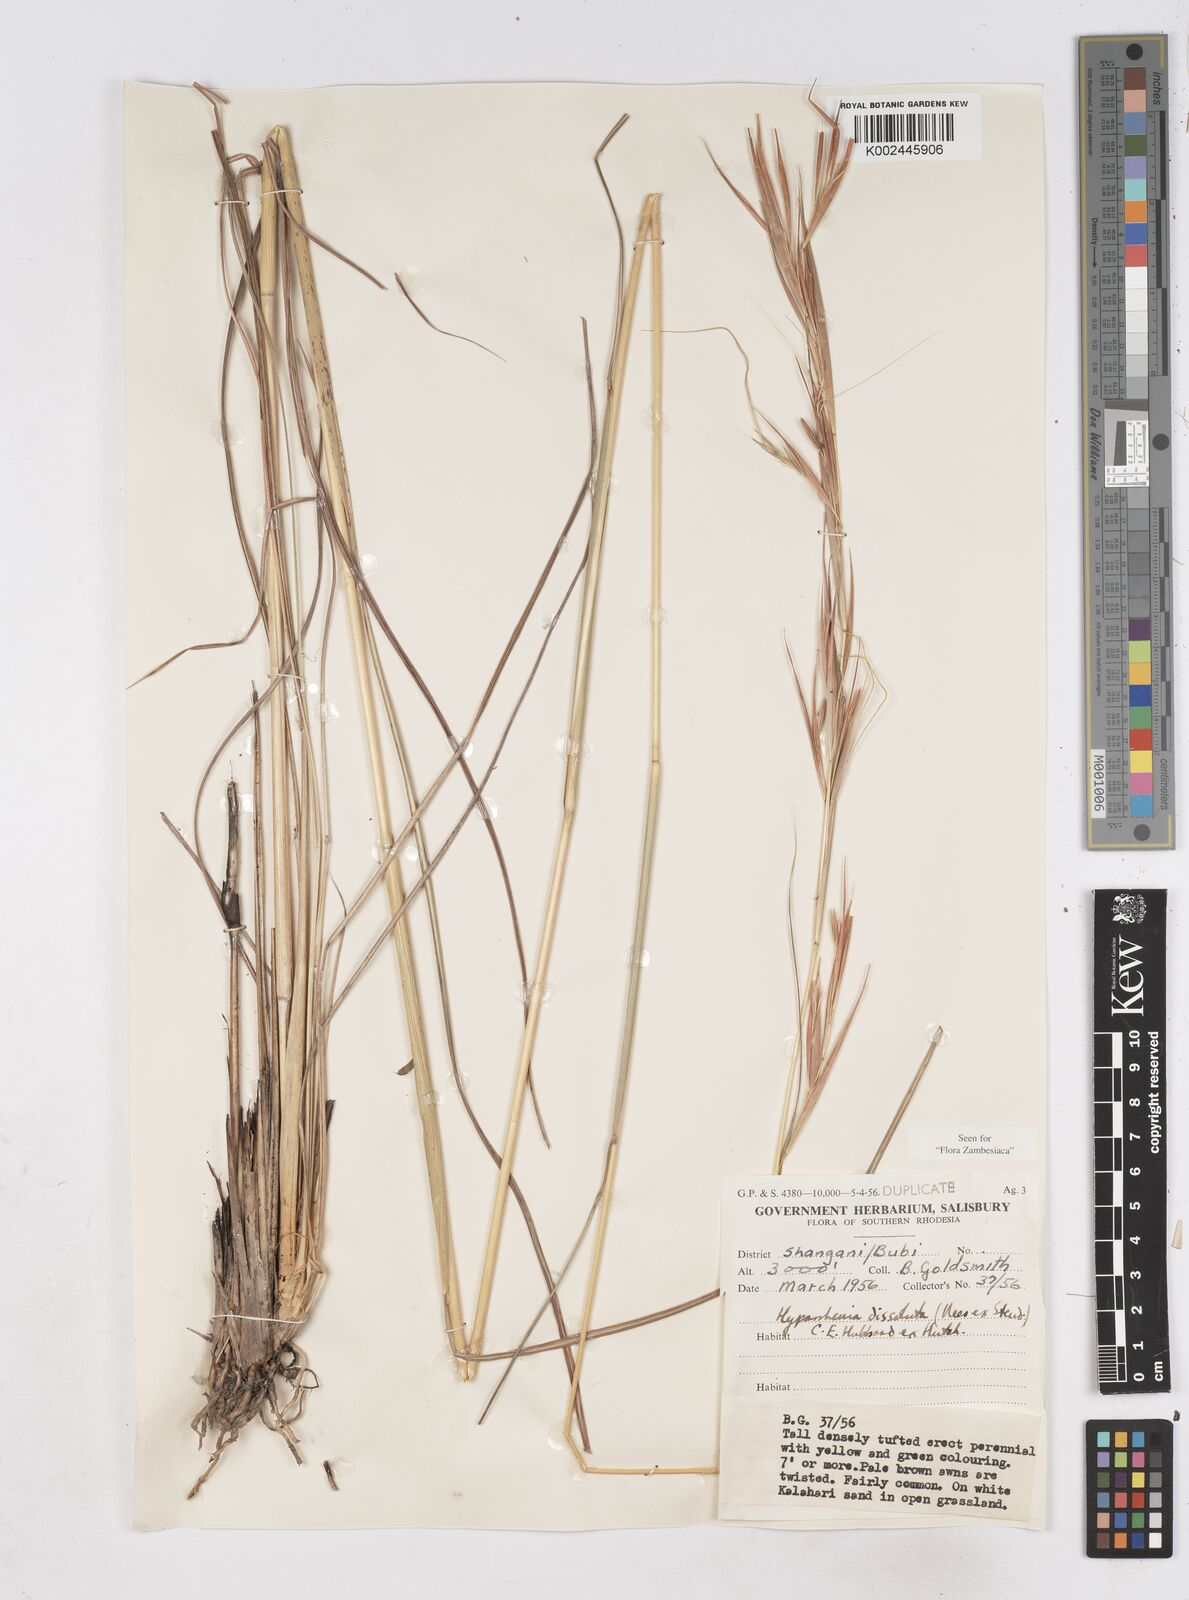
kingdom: Plantae
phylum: Tracheophyta
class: Liliopsida
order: Poales
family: Poaceae
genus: Hyperthelia
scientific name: Hyperthelia dissoluta
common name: Yellow thatching grass
